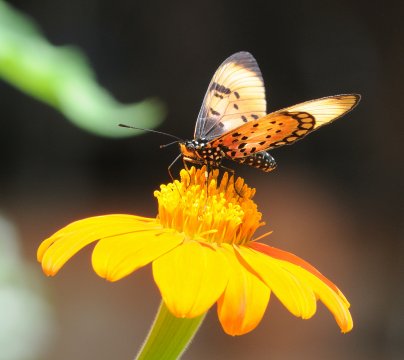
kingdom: Animalia
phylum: Arthropoda
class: Insecta
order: Lepidoptera
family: Nymphalidae
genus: Acraea
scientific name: Acraea natalica
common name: Natal Acraea
